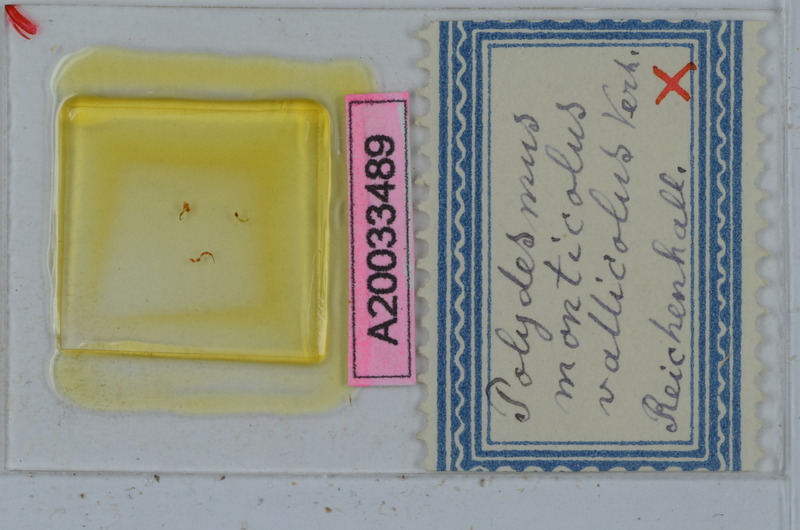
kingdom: Animalia
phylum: Arthropoda
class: Diplopoda
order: Polydesmida
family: Polydesmidae
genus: Polydesmus
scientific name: Polydesmus monticola
